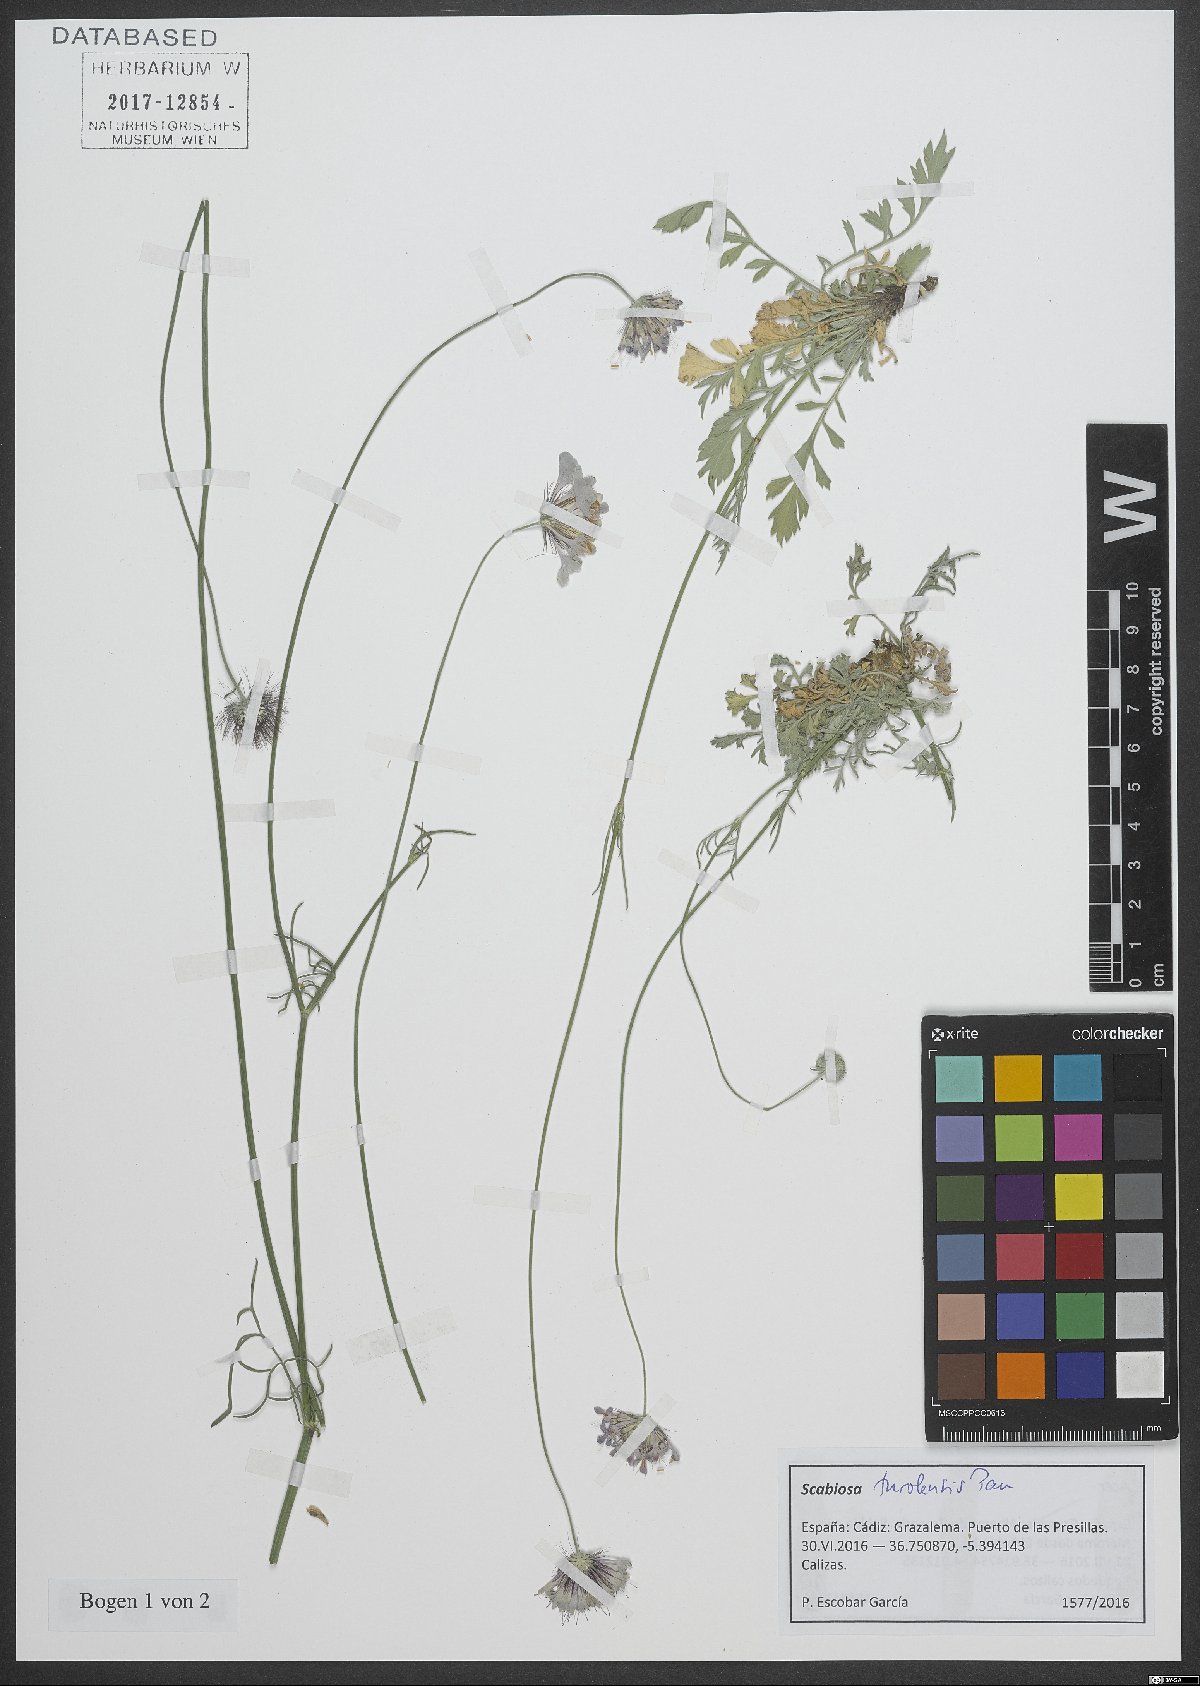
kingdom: Plantae
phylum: Tracheophyta
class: Magnoliopsida
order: Dipsacales
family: Caprifoliaceae
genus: Scabiosa
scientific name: Scabiosa turolensis
